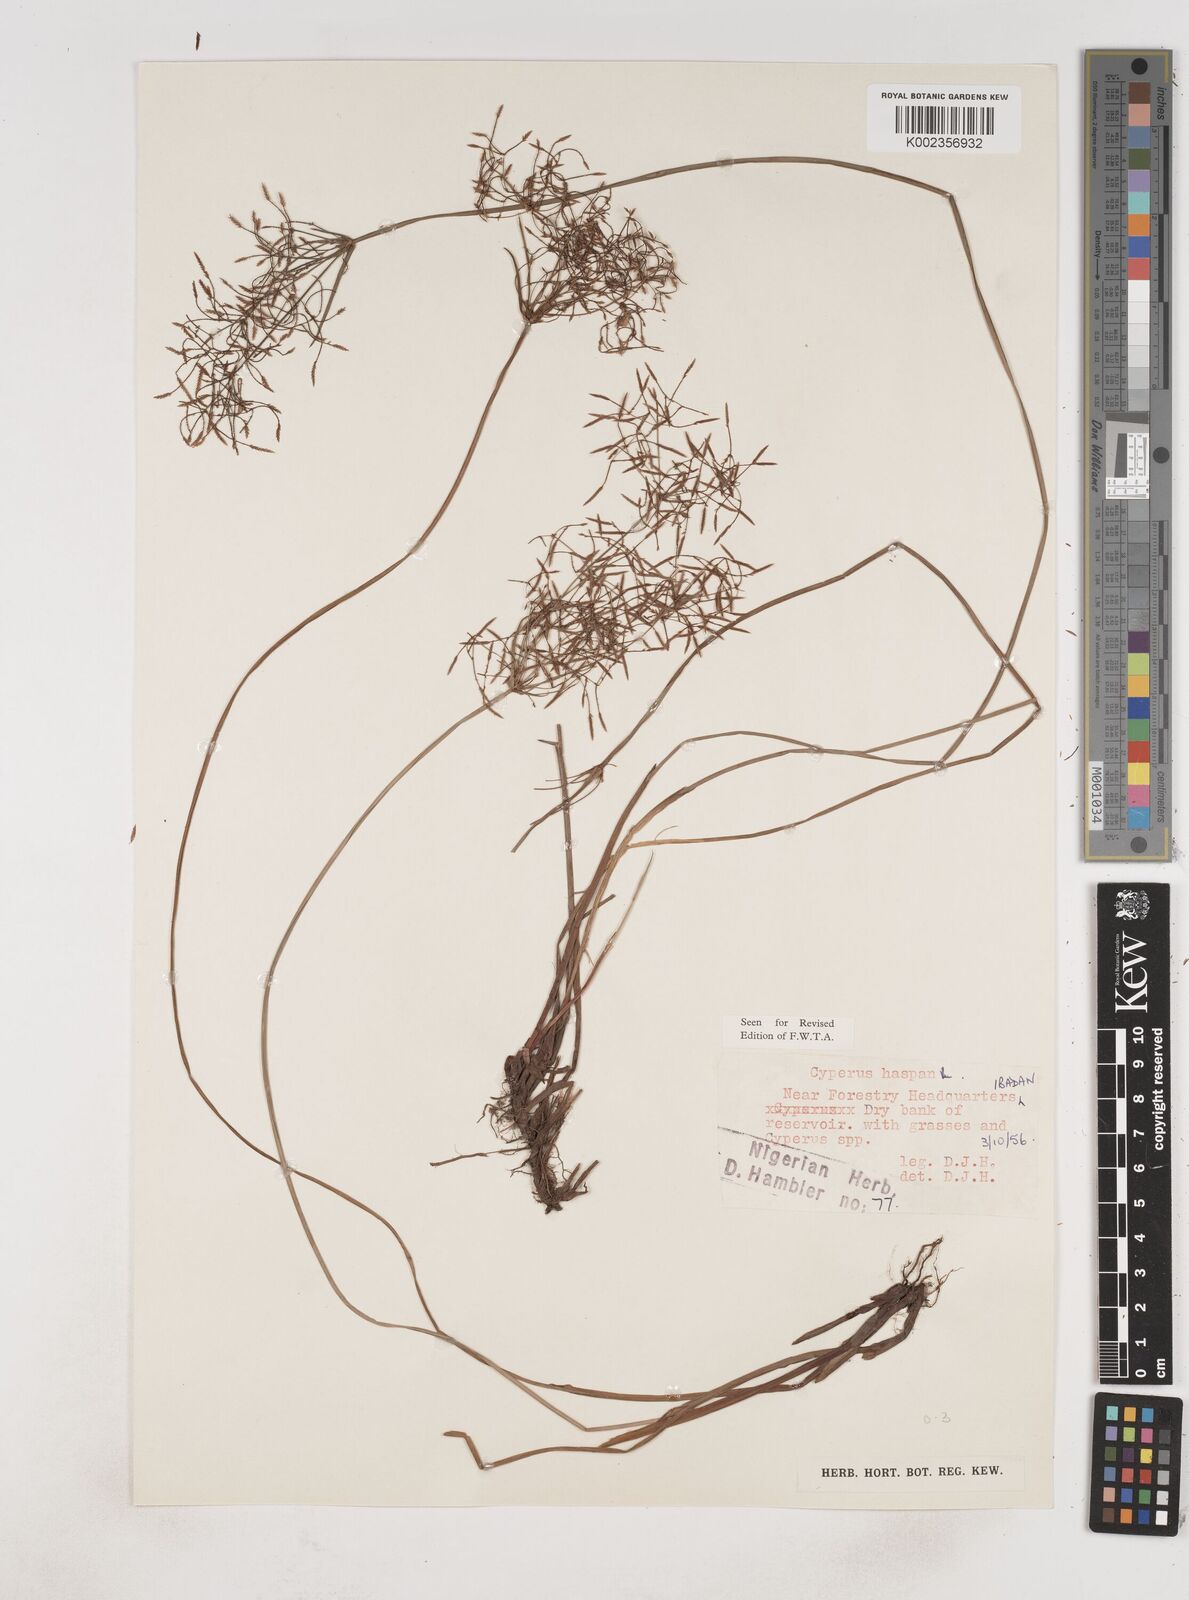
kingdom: Plantae
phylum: Tracheophyta
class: Liliopsida
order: Poales
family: Cyperaceae
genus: Cyperus
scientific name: Cyperus haspan
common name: Haspan flatsedge
